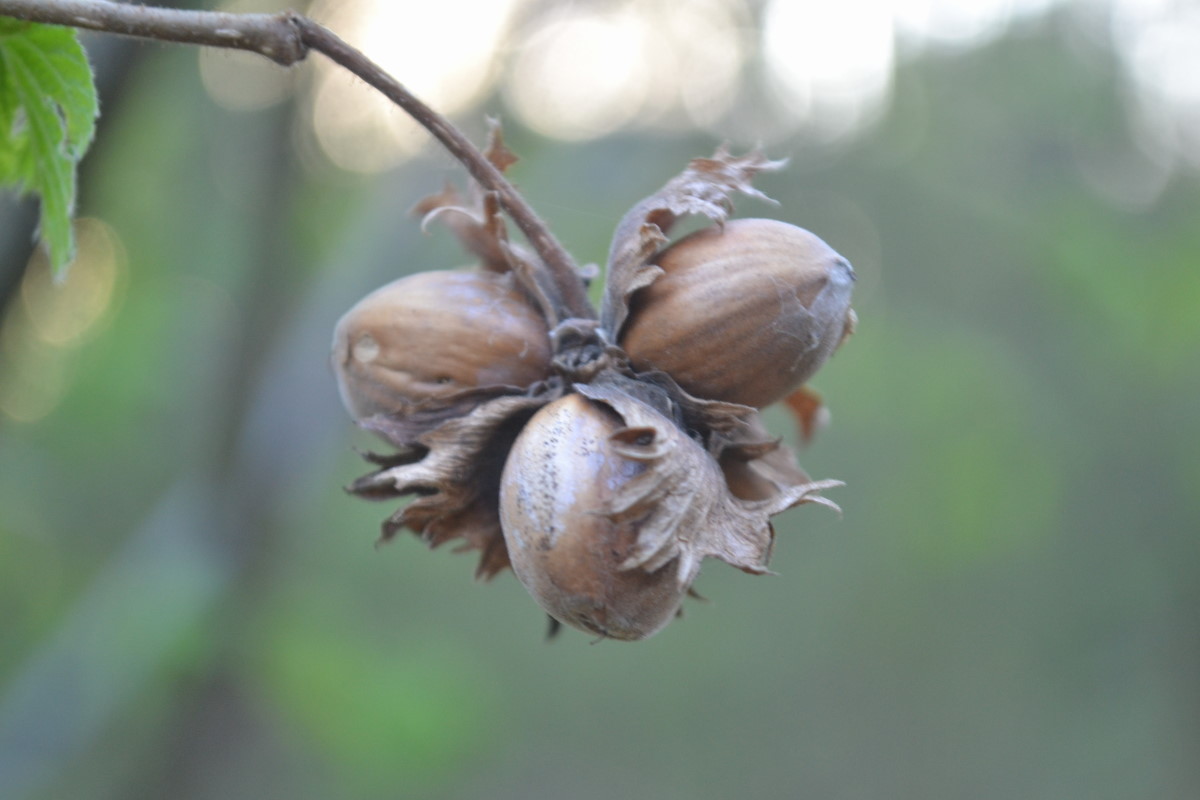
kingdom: Plantae
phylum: Tracheophyta
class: Magnoliopsida
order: Fagales
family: Betulaceae
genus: Corylus
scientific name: Corylus avellana
